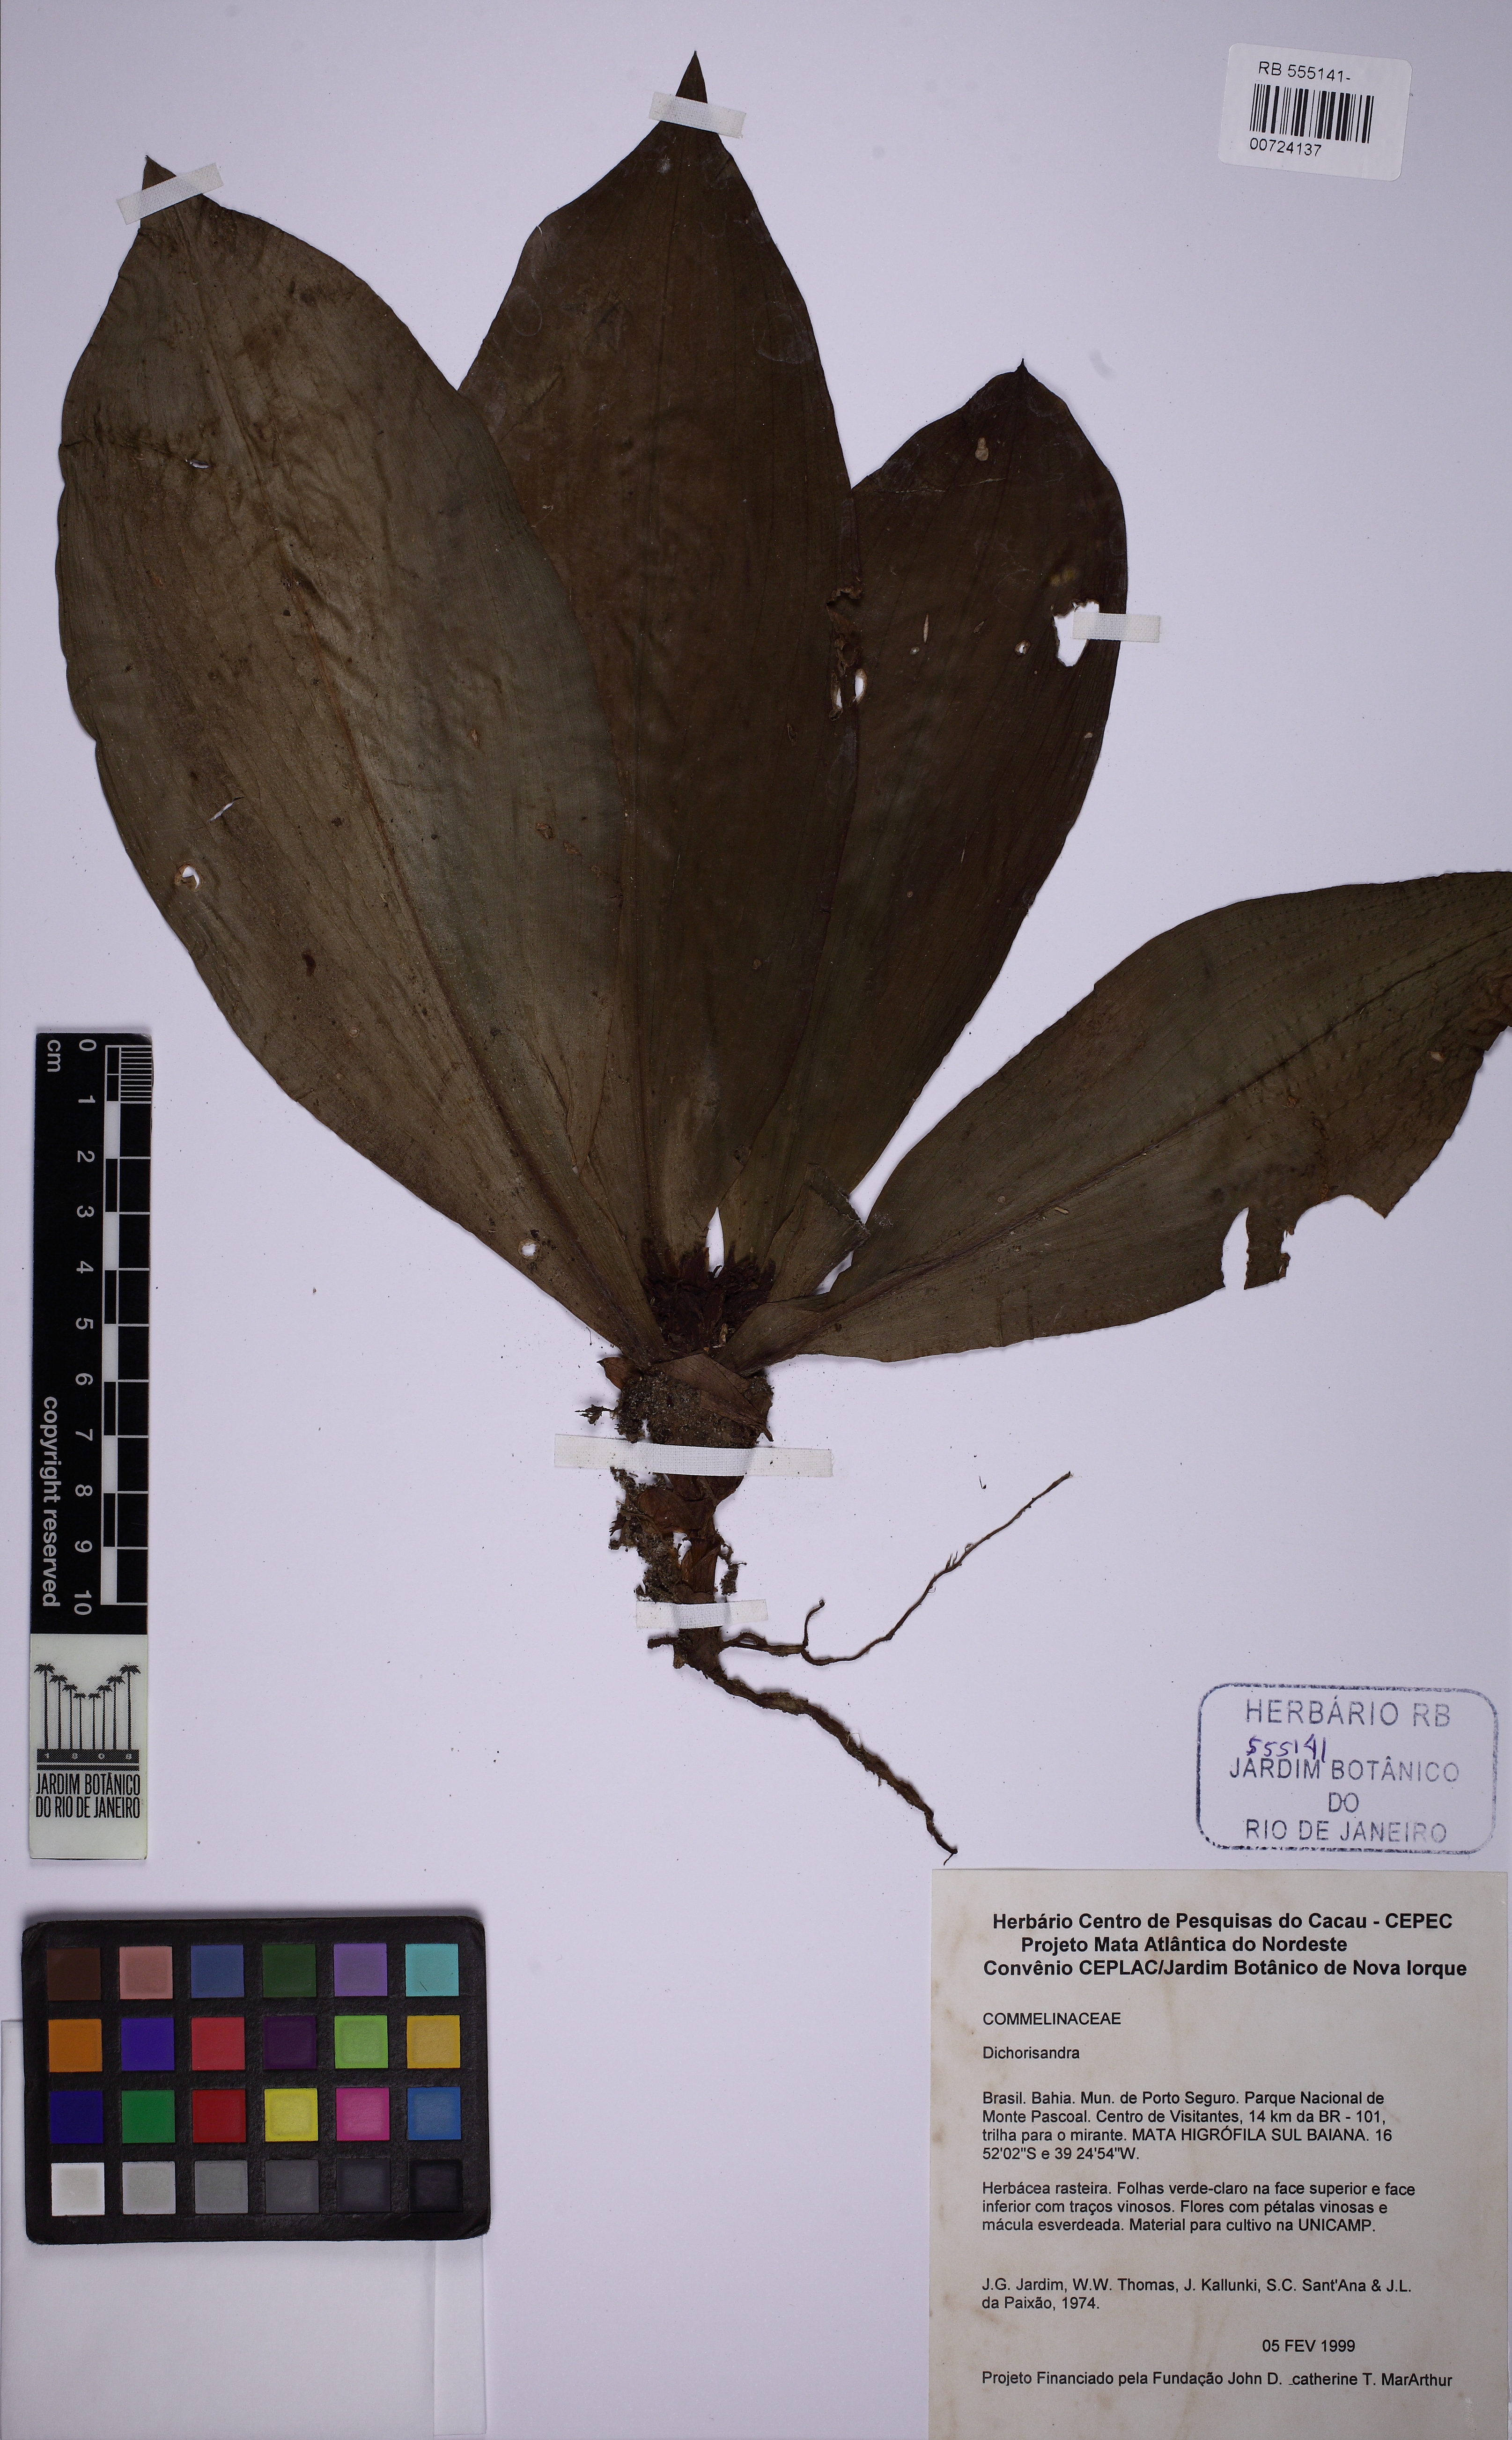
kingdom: Plantae
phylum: Tracheophyta
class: Liliopsida
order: Commelinales
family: Commelinaceae
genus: Dichorisandra
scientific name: Dichorisandra
